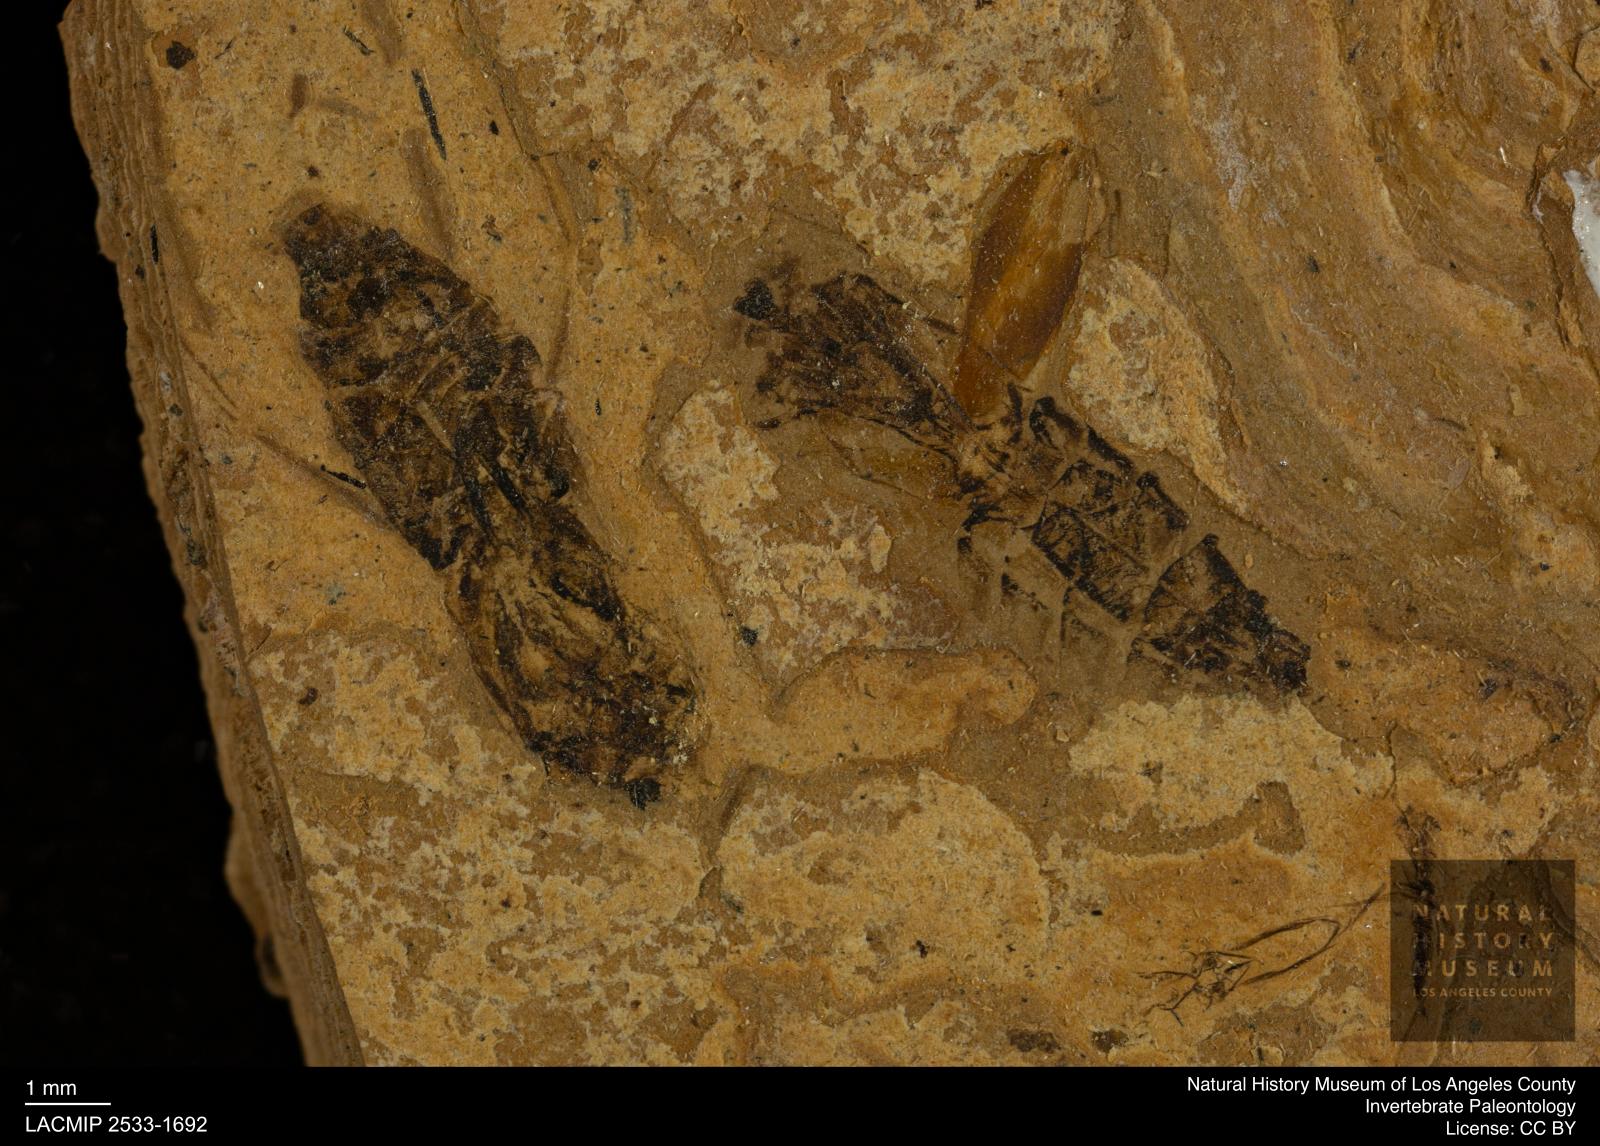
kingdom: Animalia
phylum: Arthropoda
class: Insecta
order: Hemiptera
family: Notonectidae
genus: Notonecta
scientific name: Notonecta
